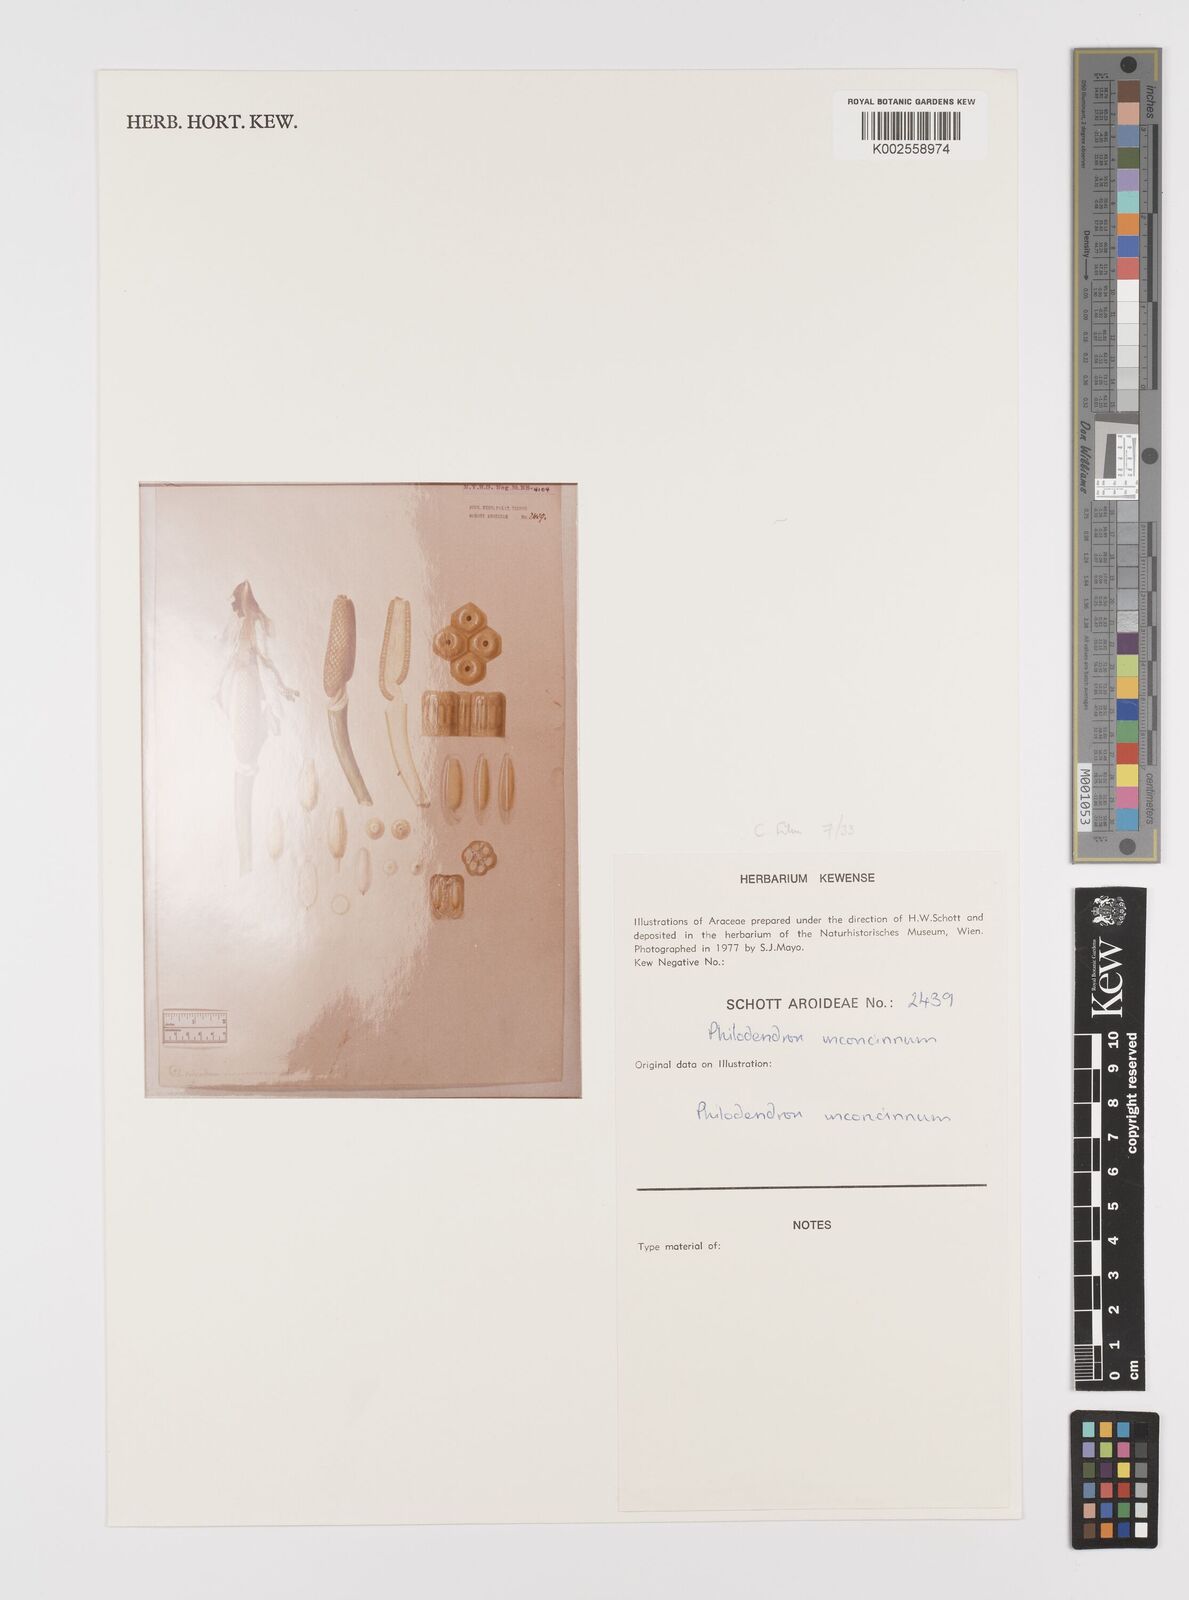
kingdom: Plantae
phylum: Tracheophyta
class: Liliopsida
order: Alismatales
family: Araceae
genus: Philodendron
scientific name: Philodendron inconcinnum
